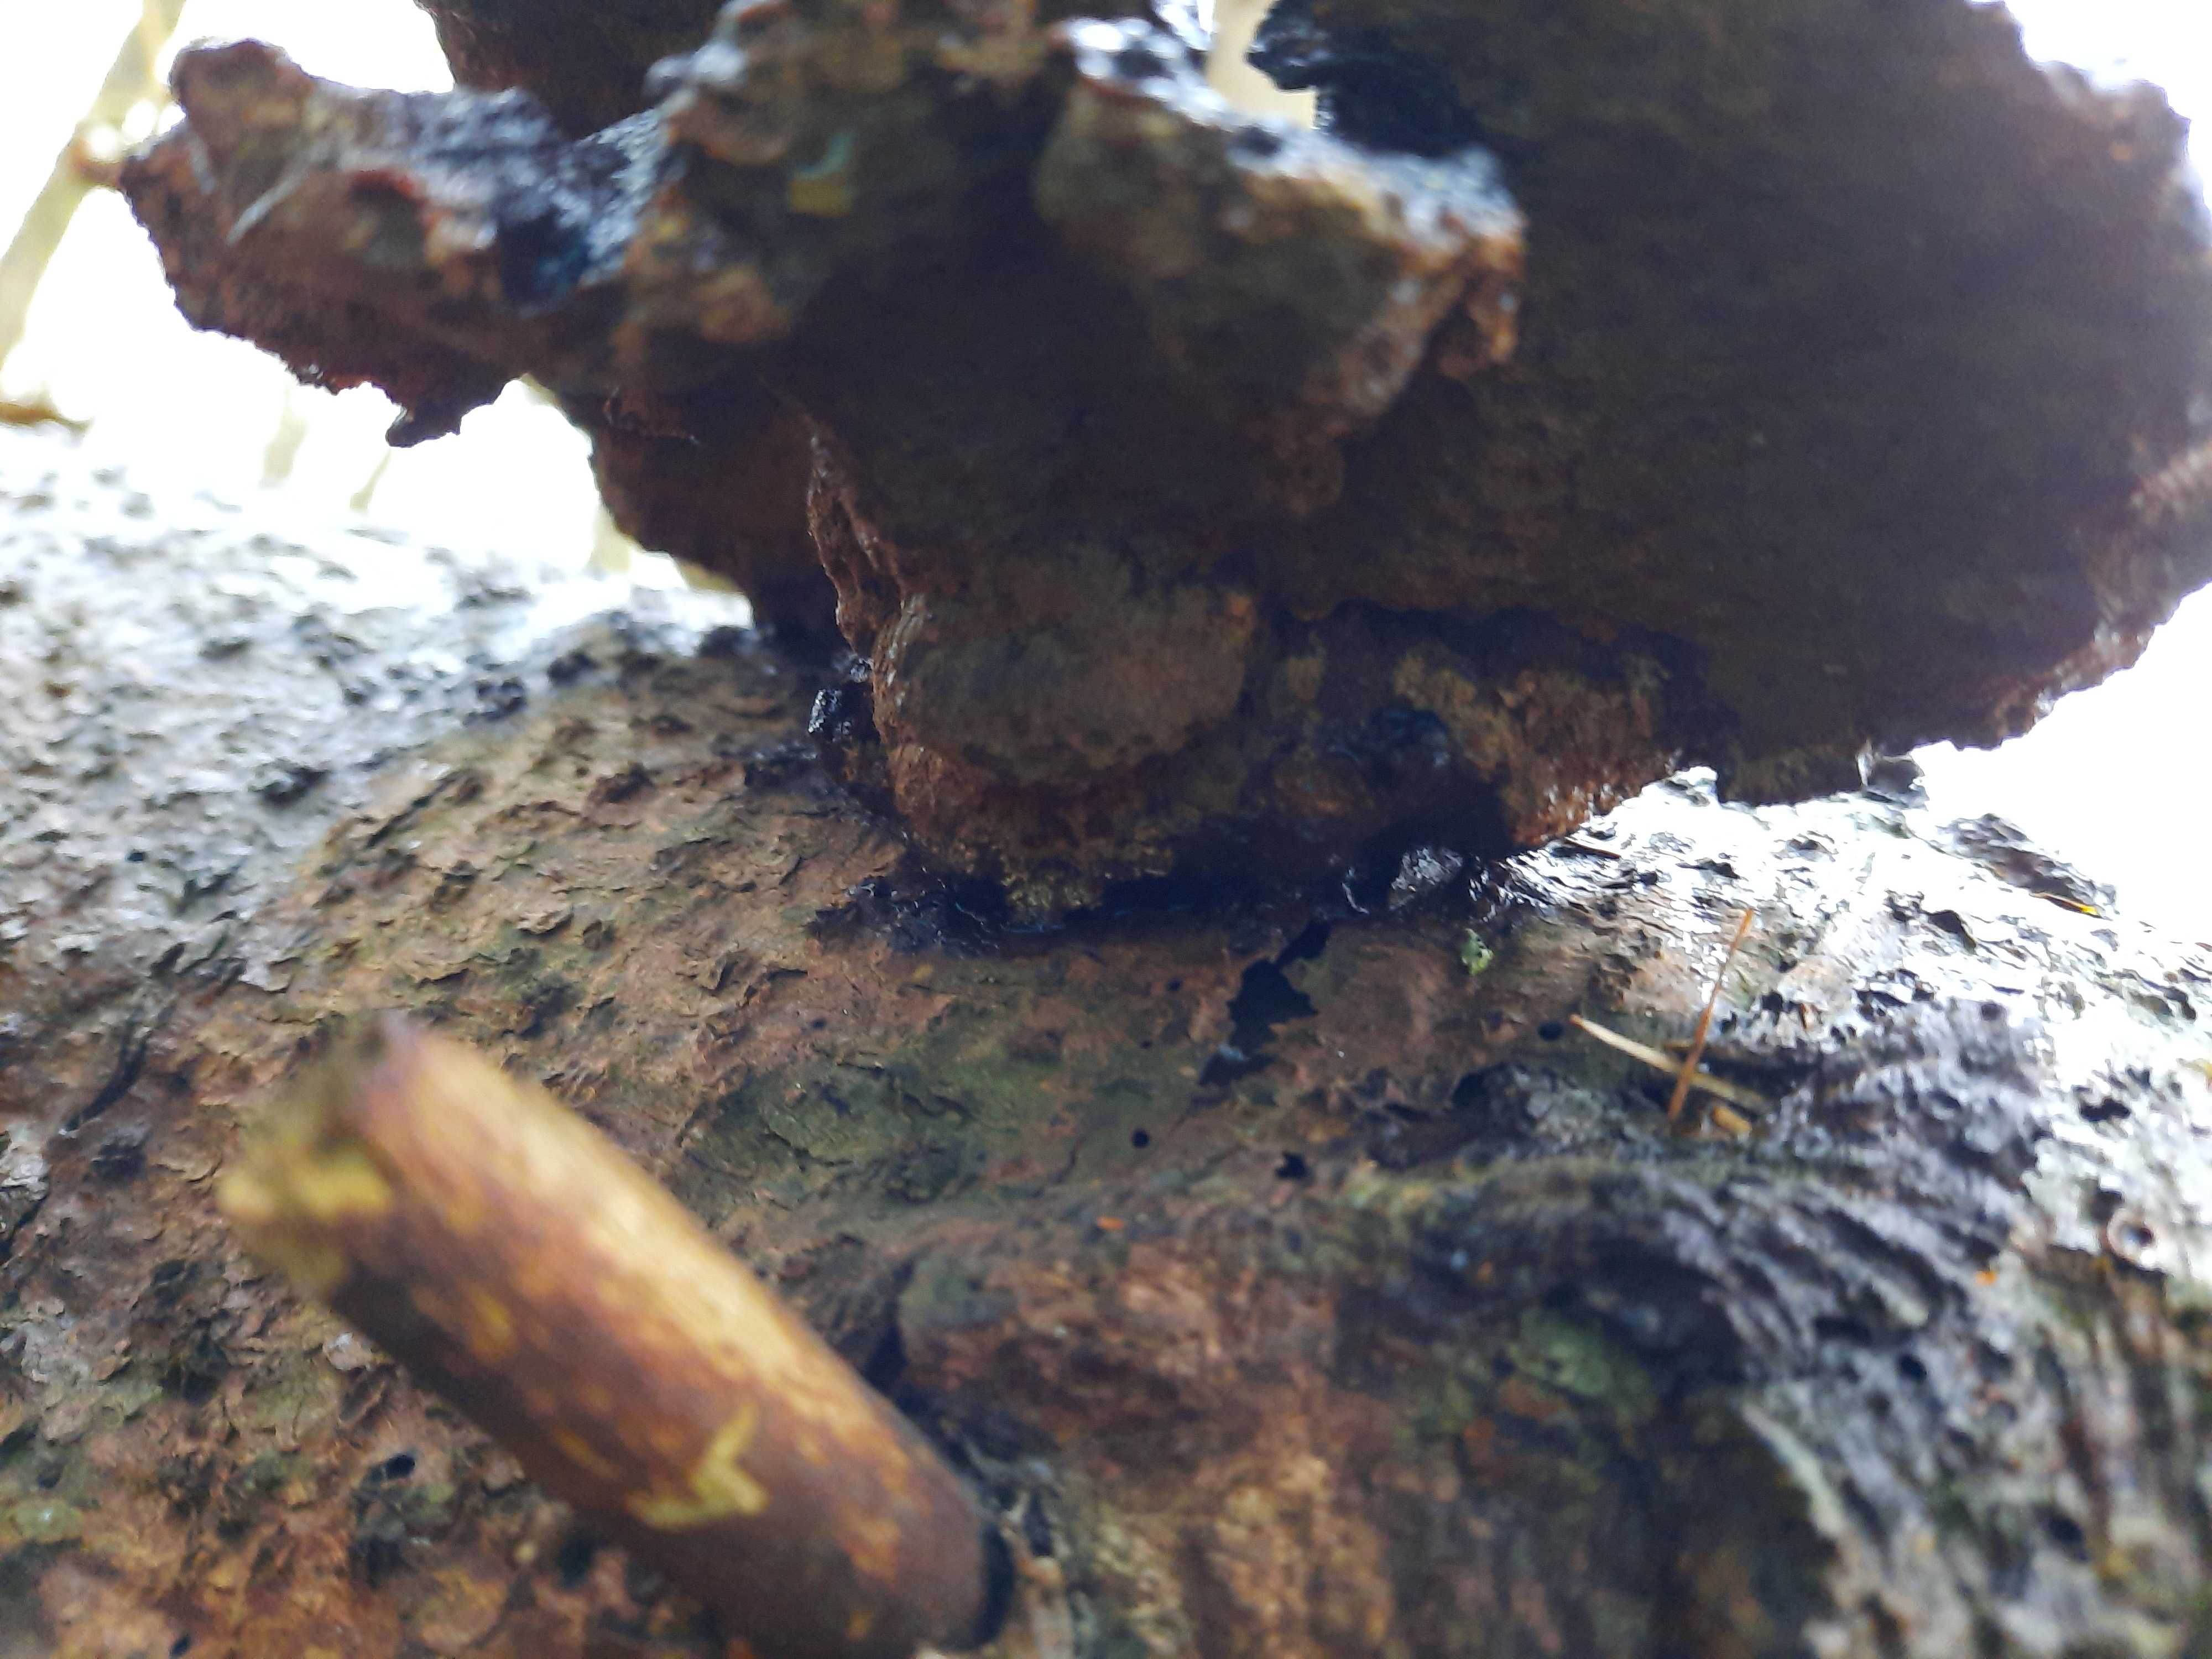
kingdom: Fungi
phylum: Basidiomycota
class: Agaricomycetes
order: Polyporales
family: Ischnodermataceae
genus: Ischnoderma
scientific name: Ischnoderma benzoinum
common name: gran-tjæreporesvamp
